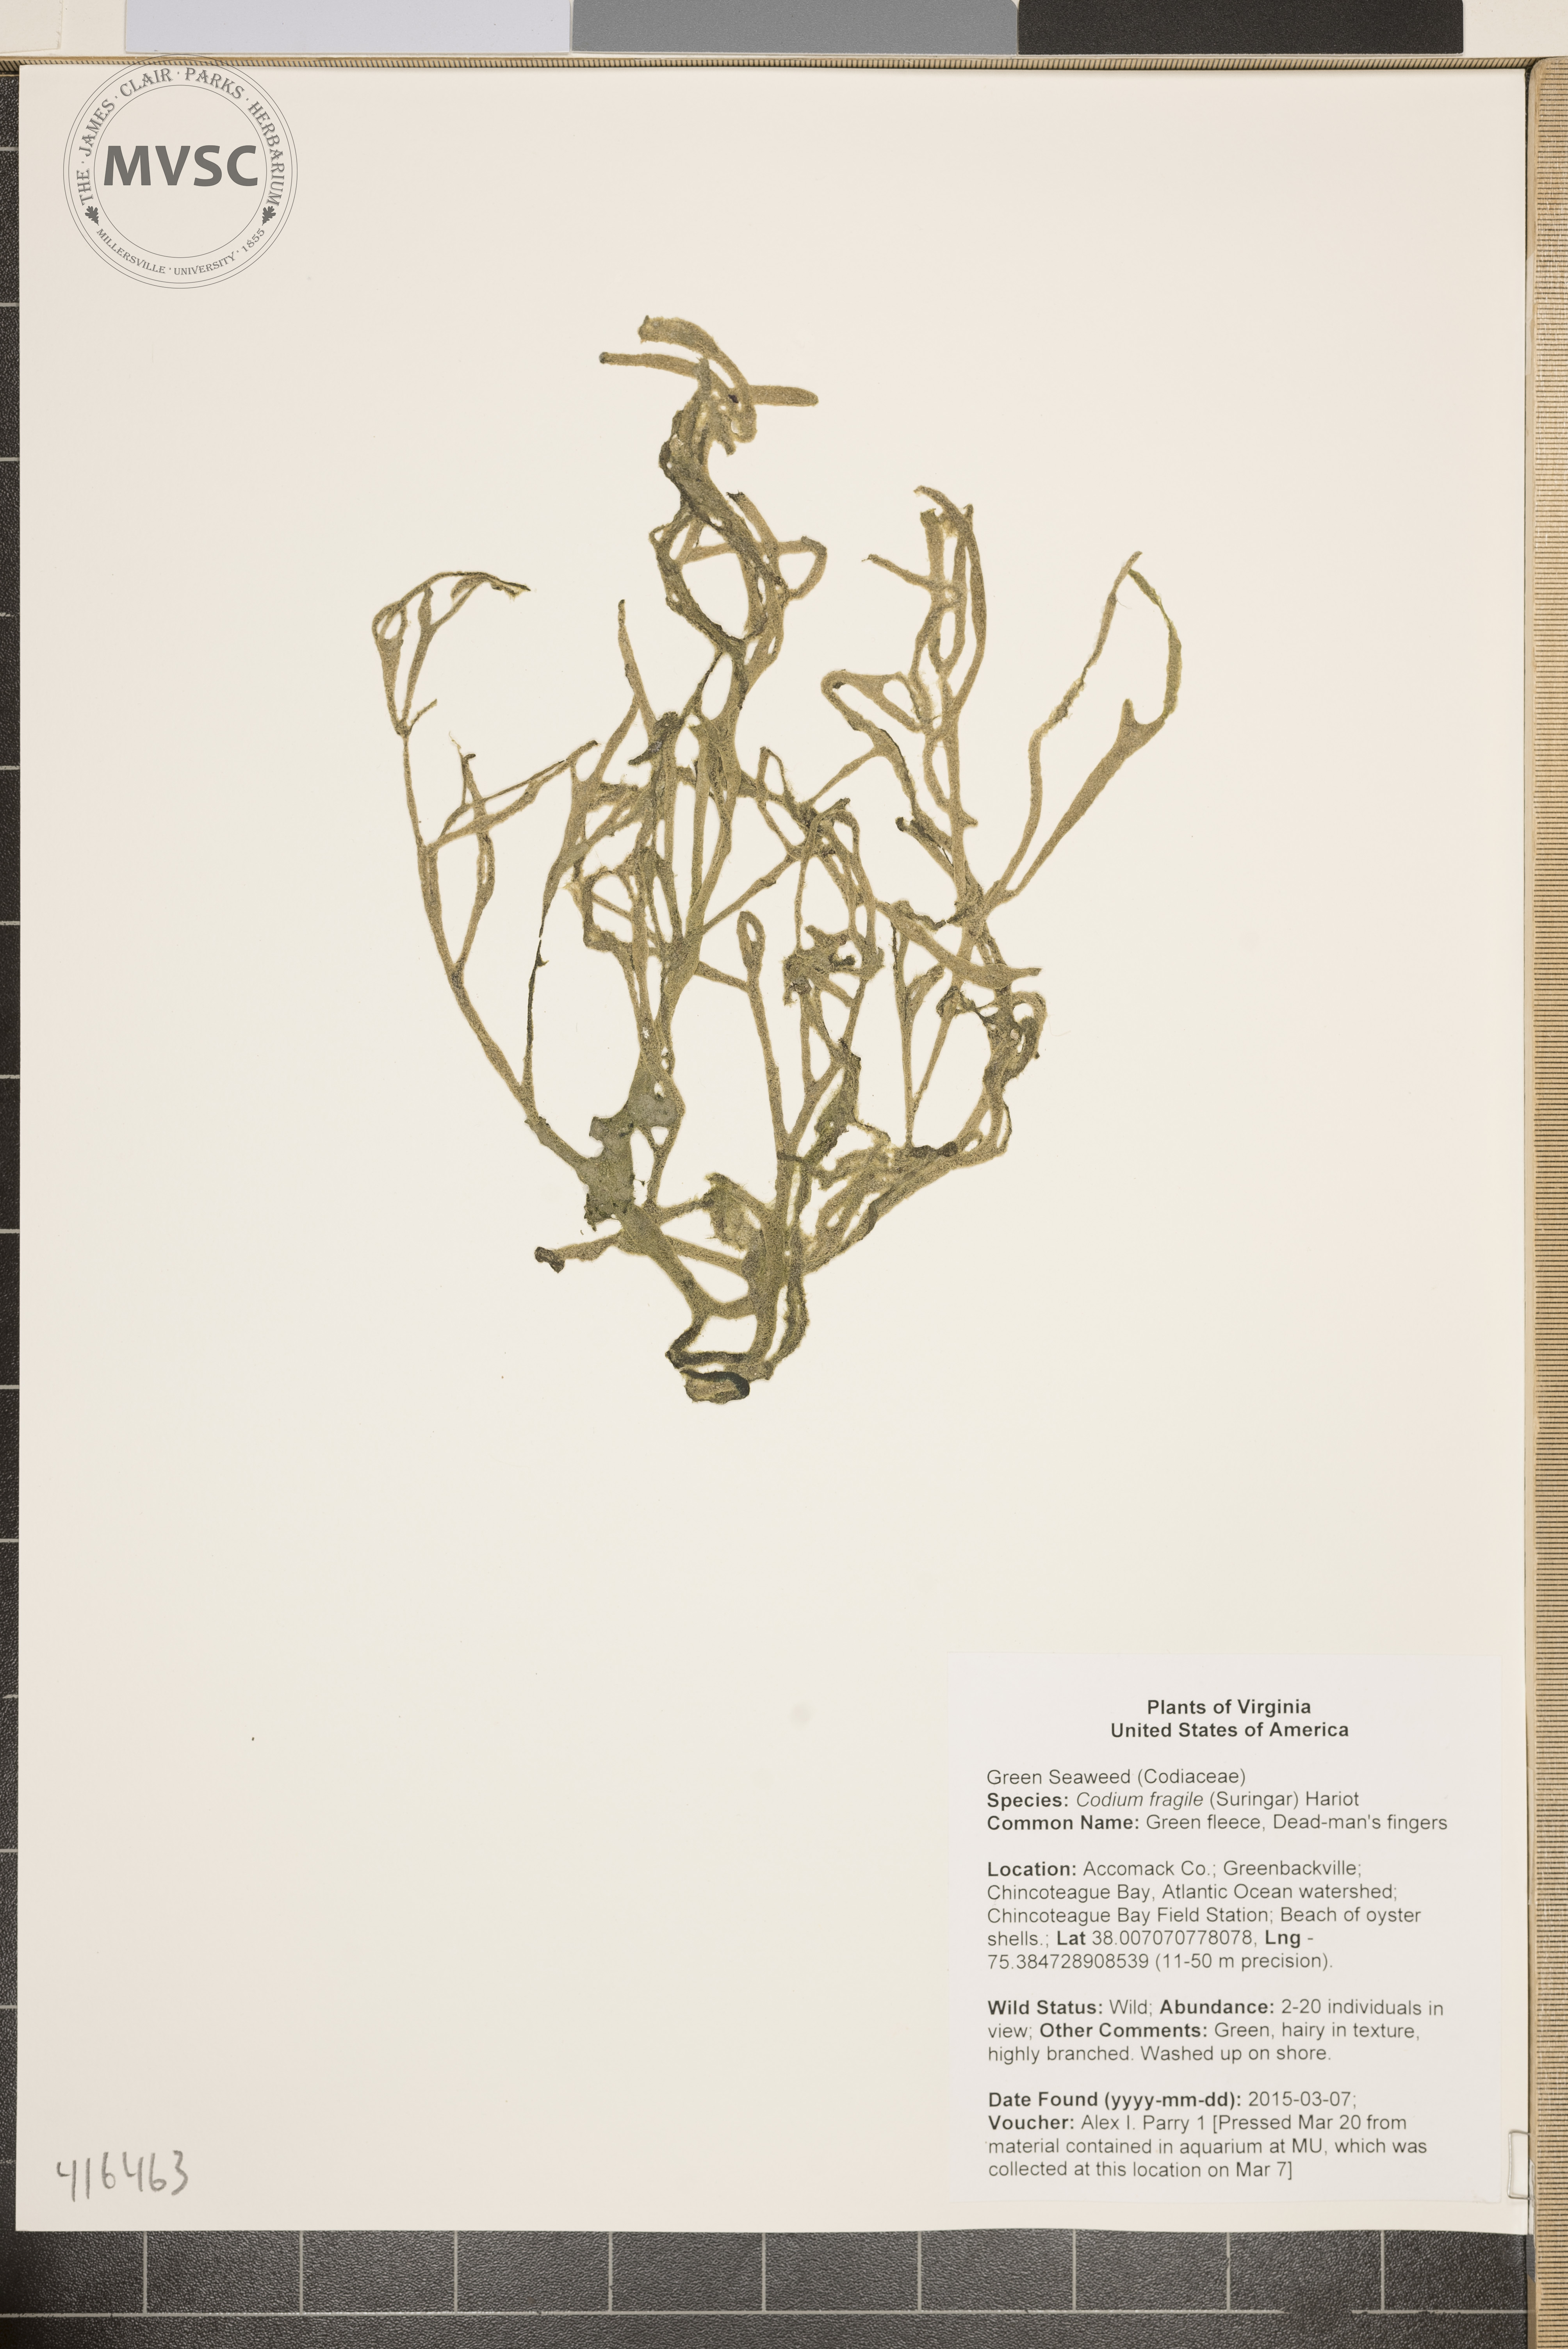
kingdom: Plantae
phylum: Chlorophyta
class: Ulvophyceae
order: Bryopsidales
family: Codiaceae
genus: Codium
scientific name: Codium fragile
